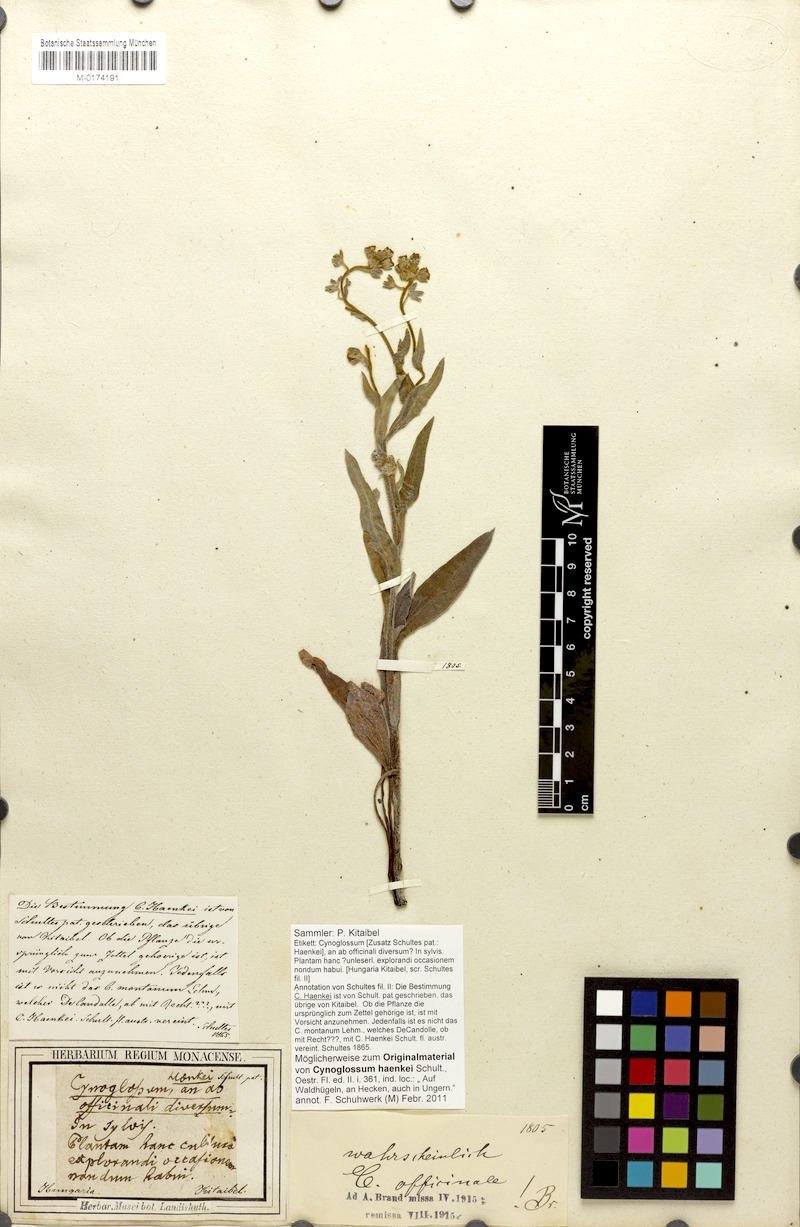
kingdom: Plantae
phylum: Tracheophyta
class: Magnoliopsida
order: Boraginales
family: Boraginaceae
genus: Cynoglossum
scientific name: Cynoglossum officinale
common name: Hound's-tongue
